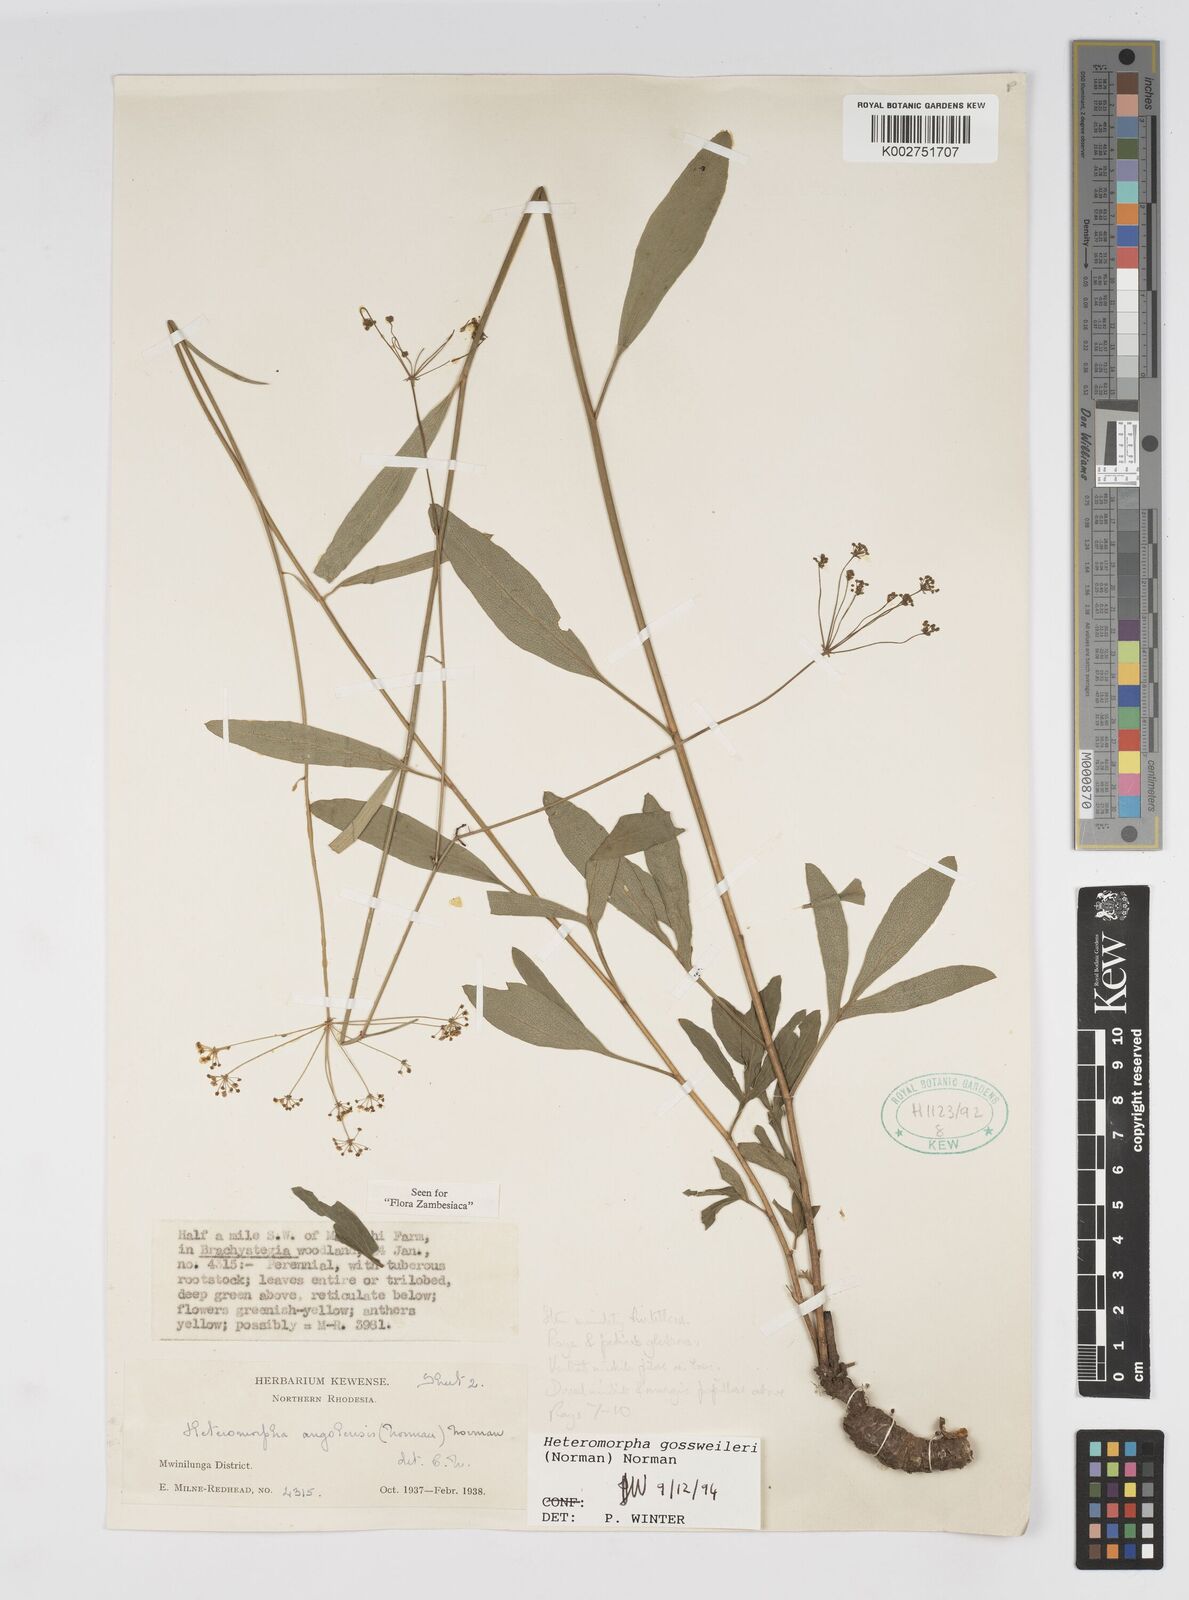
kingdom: Plantae
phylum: Tracheophyta
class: Magnoliopsida
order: Apiales
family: Apiaceae
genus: Heteromorpha
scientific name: Heteromorpha gossweileri
